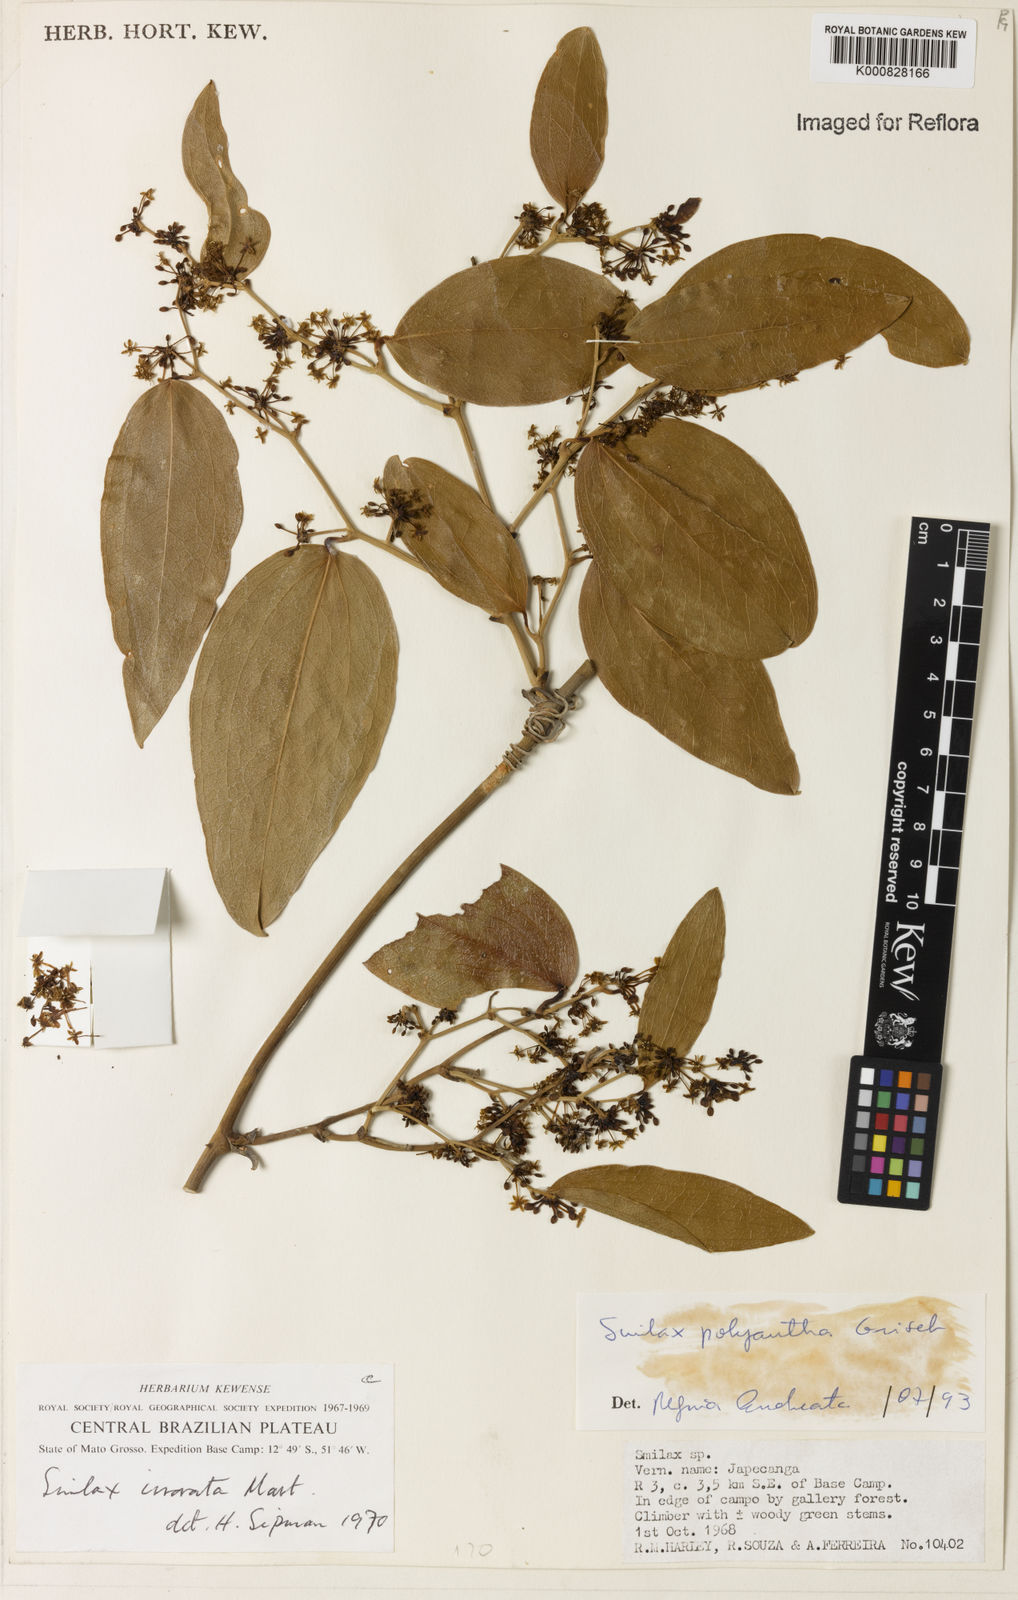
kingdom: Plantae
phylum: Tracheophyta
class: Liliopsida
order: Liliales
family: Smilacaceae
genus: Smilax
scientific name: Smilax polyantha
